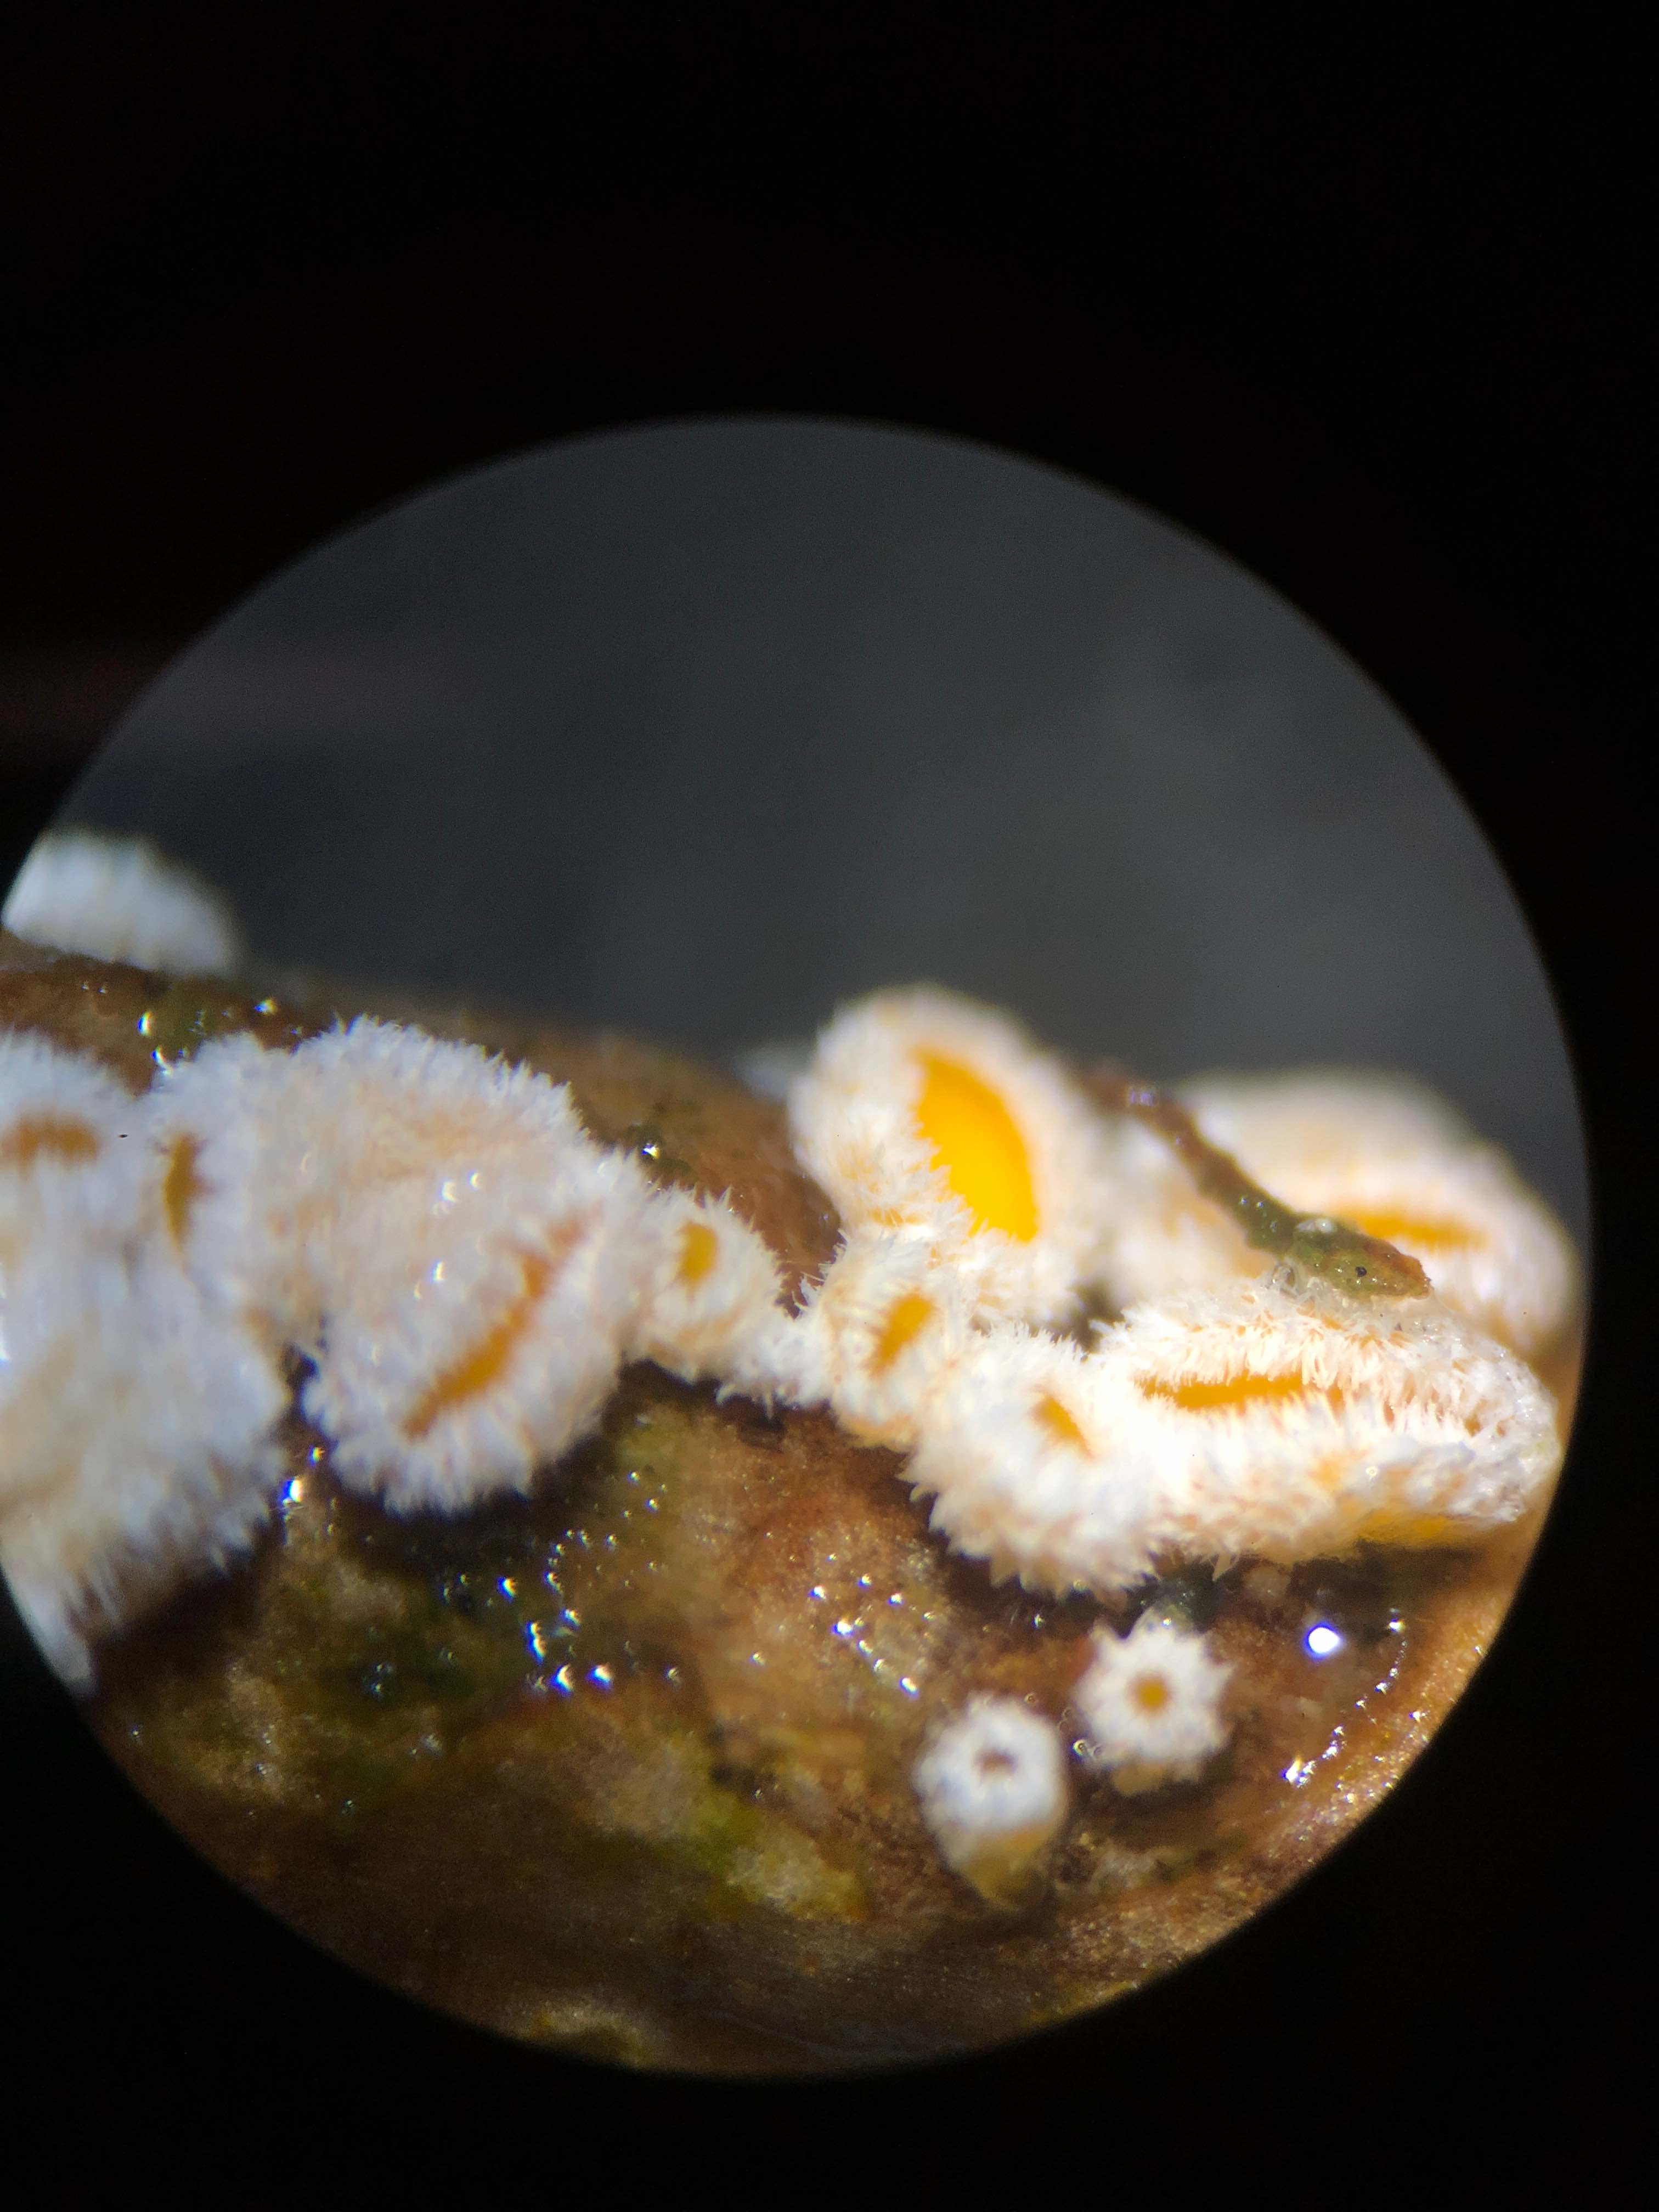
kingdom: Fungi
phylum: Ascomycota
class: Leotiomycetes
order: Helotiales
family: Lachnaceae
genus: Capitotricha
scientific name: Capitotricha bicolor
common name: prægtig frynseskive
